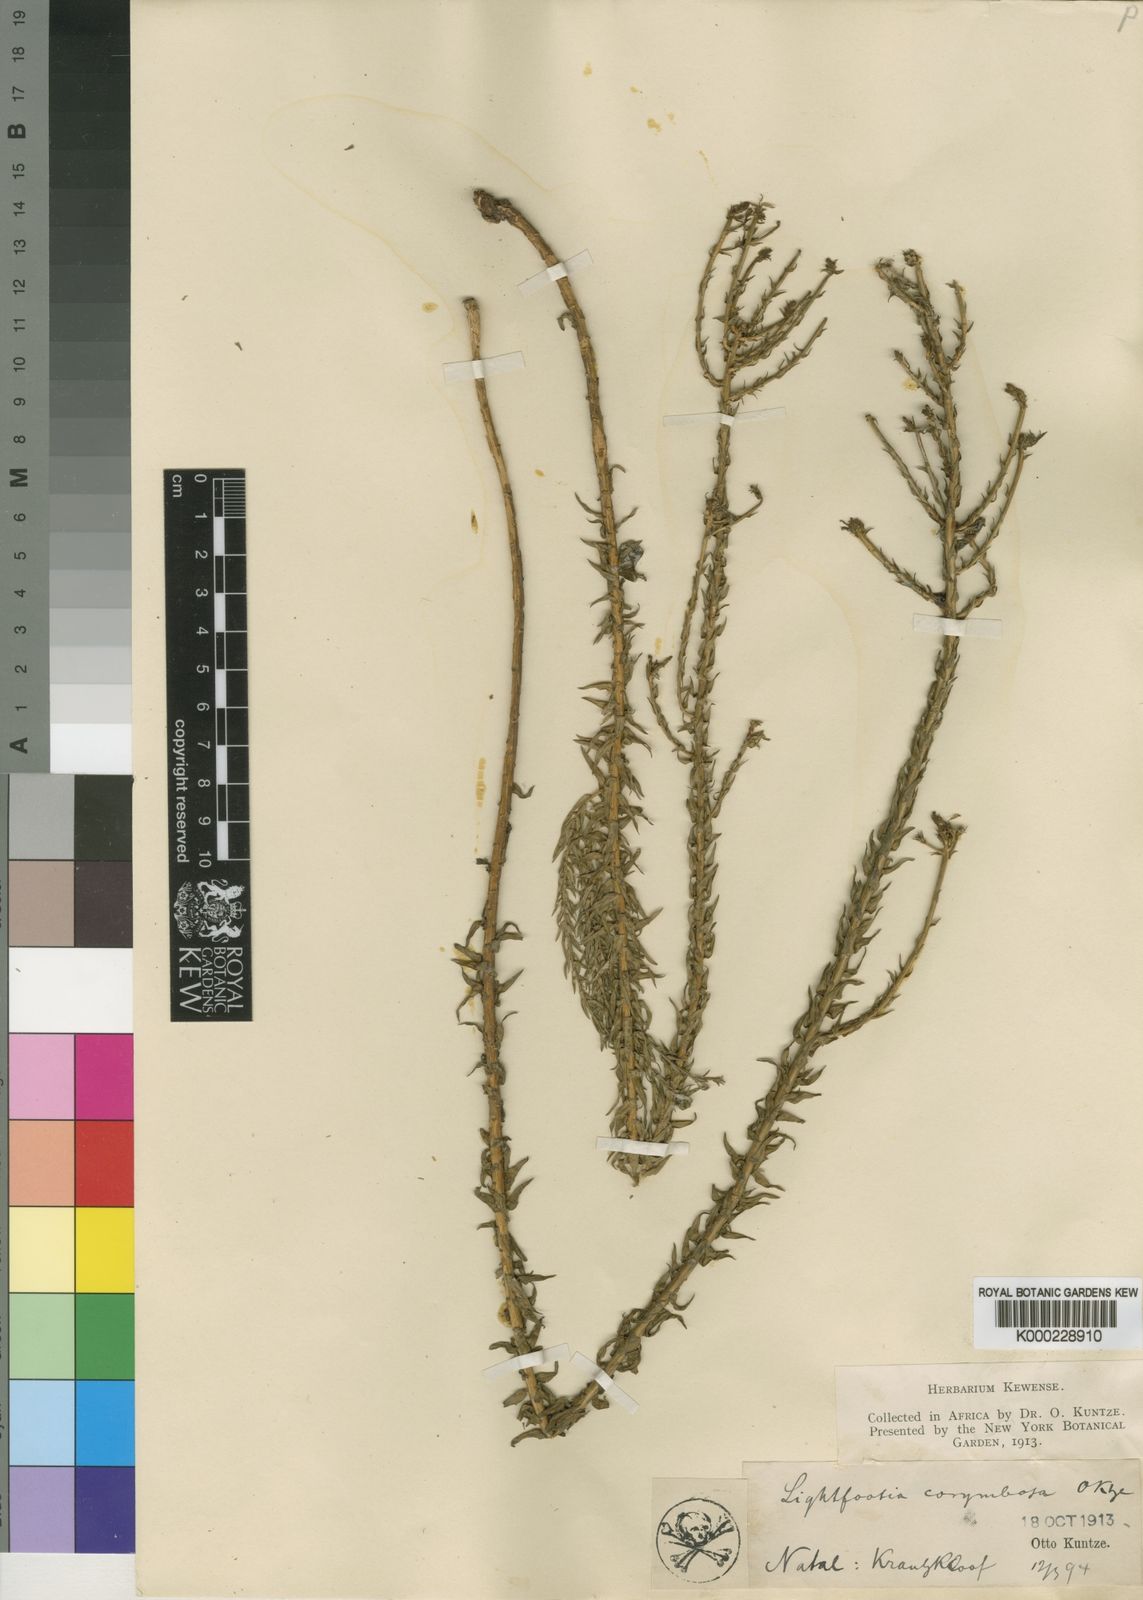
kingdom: Plantae
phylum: Tracheophyta
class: Magnoliopsida
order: Asterales
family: Campanulaceae
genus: Wahlenbergia
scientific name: Wahlenbergia huttonii
